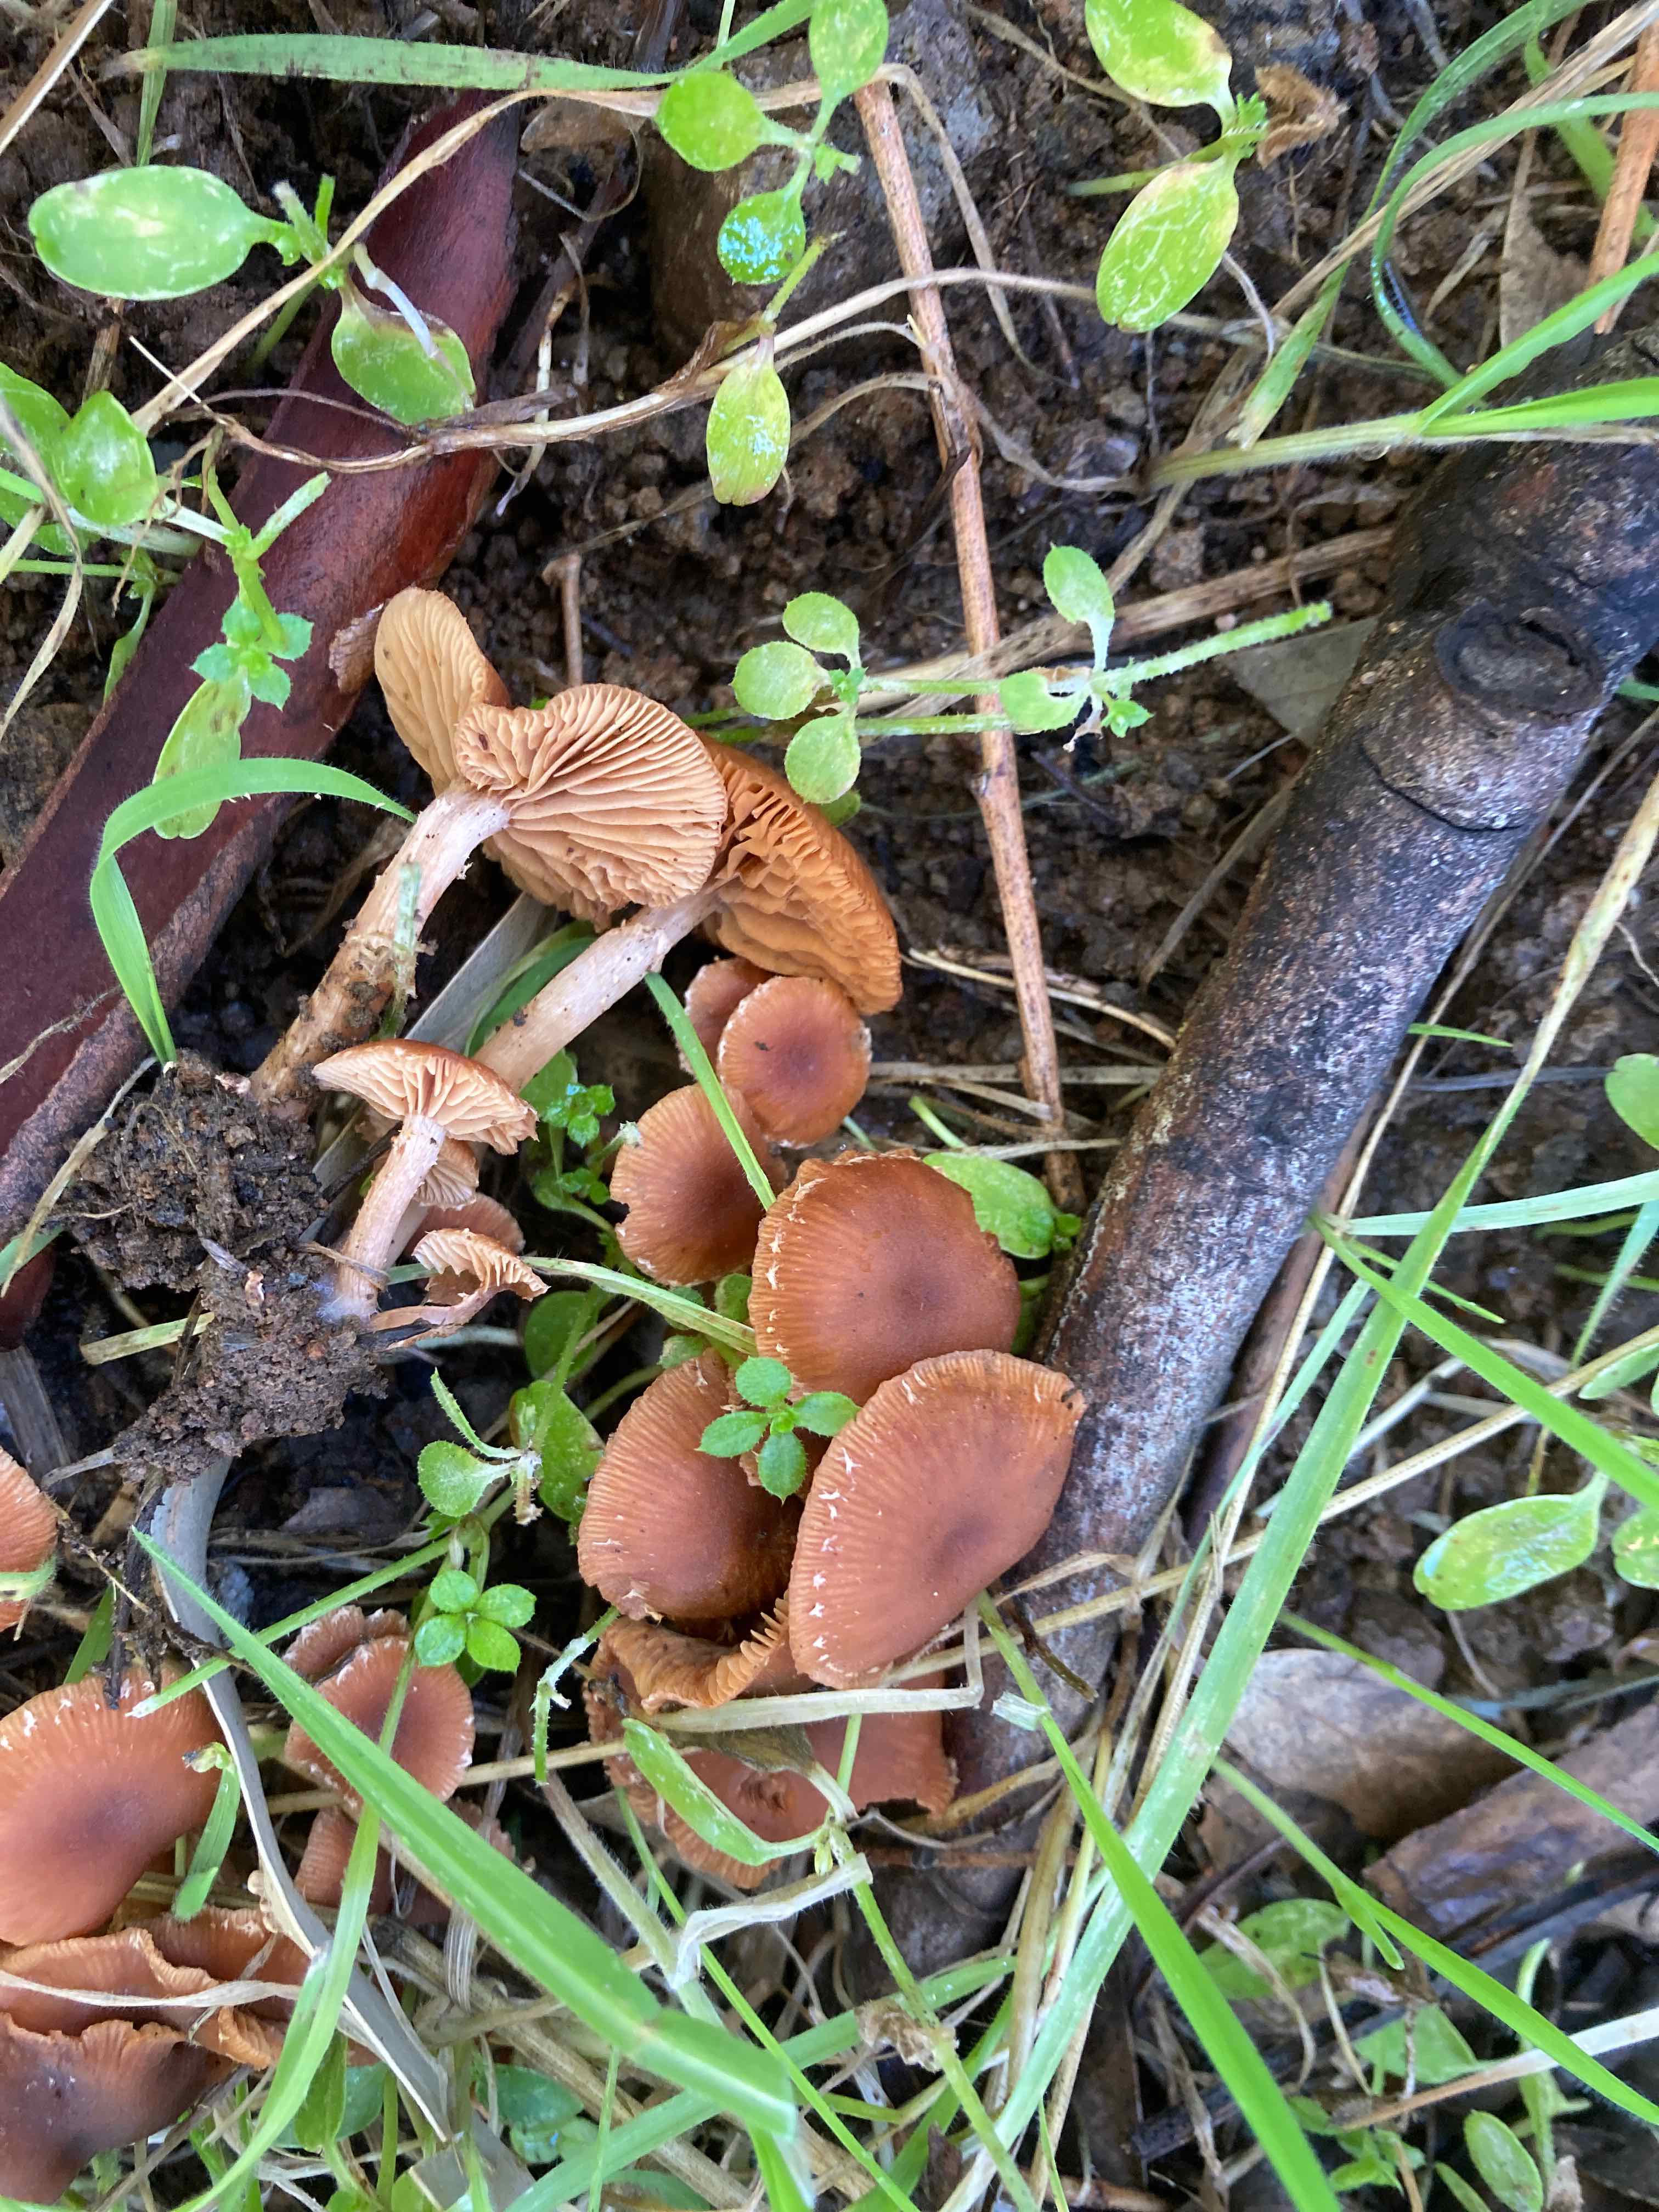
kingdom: Fungi
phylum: Basidiomycota
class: Agaricomycetes
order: Agaricales
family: Tubariaceae
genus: Tubaria
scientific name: Tubaria furfuracea
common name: kliddet fnughat
